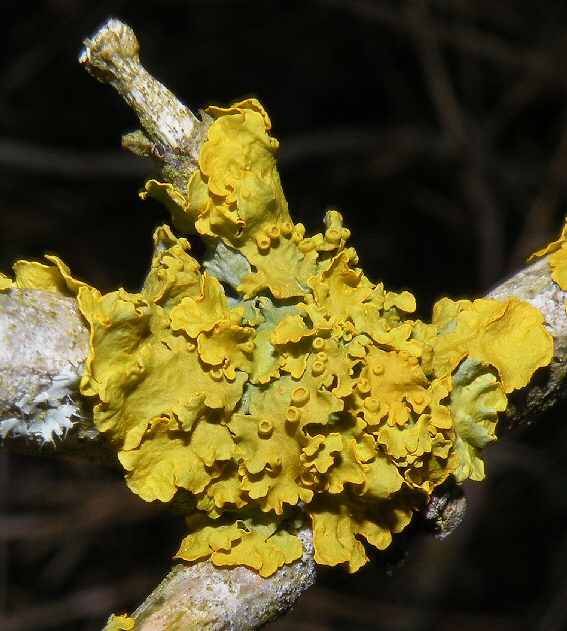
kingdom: Fungi
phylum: Ascomycota
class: Lecanoromycetes
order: Teloschistales
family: Teloschistaceae
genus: Xanthoria
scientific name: Xanthoria parietina
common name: almindelig væggelav
